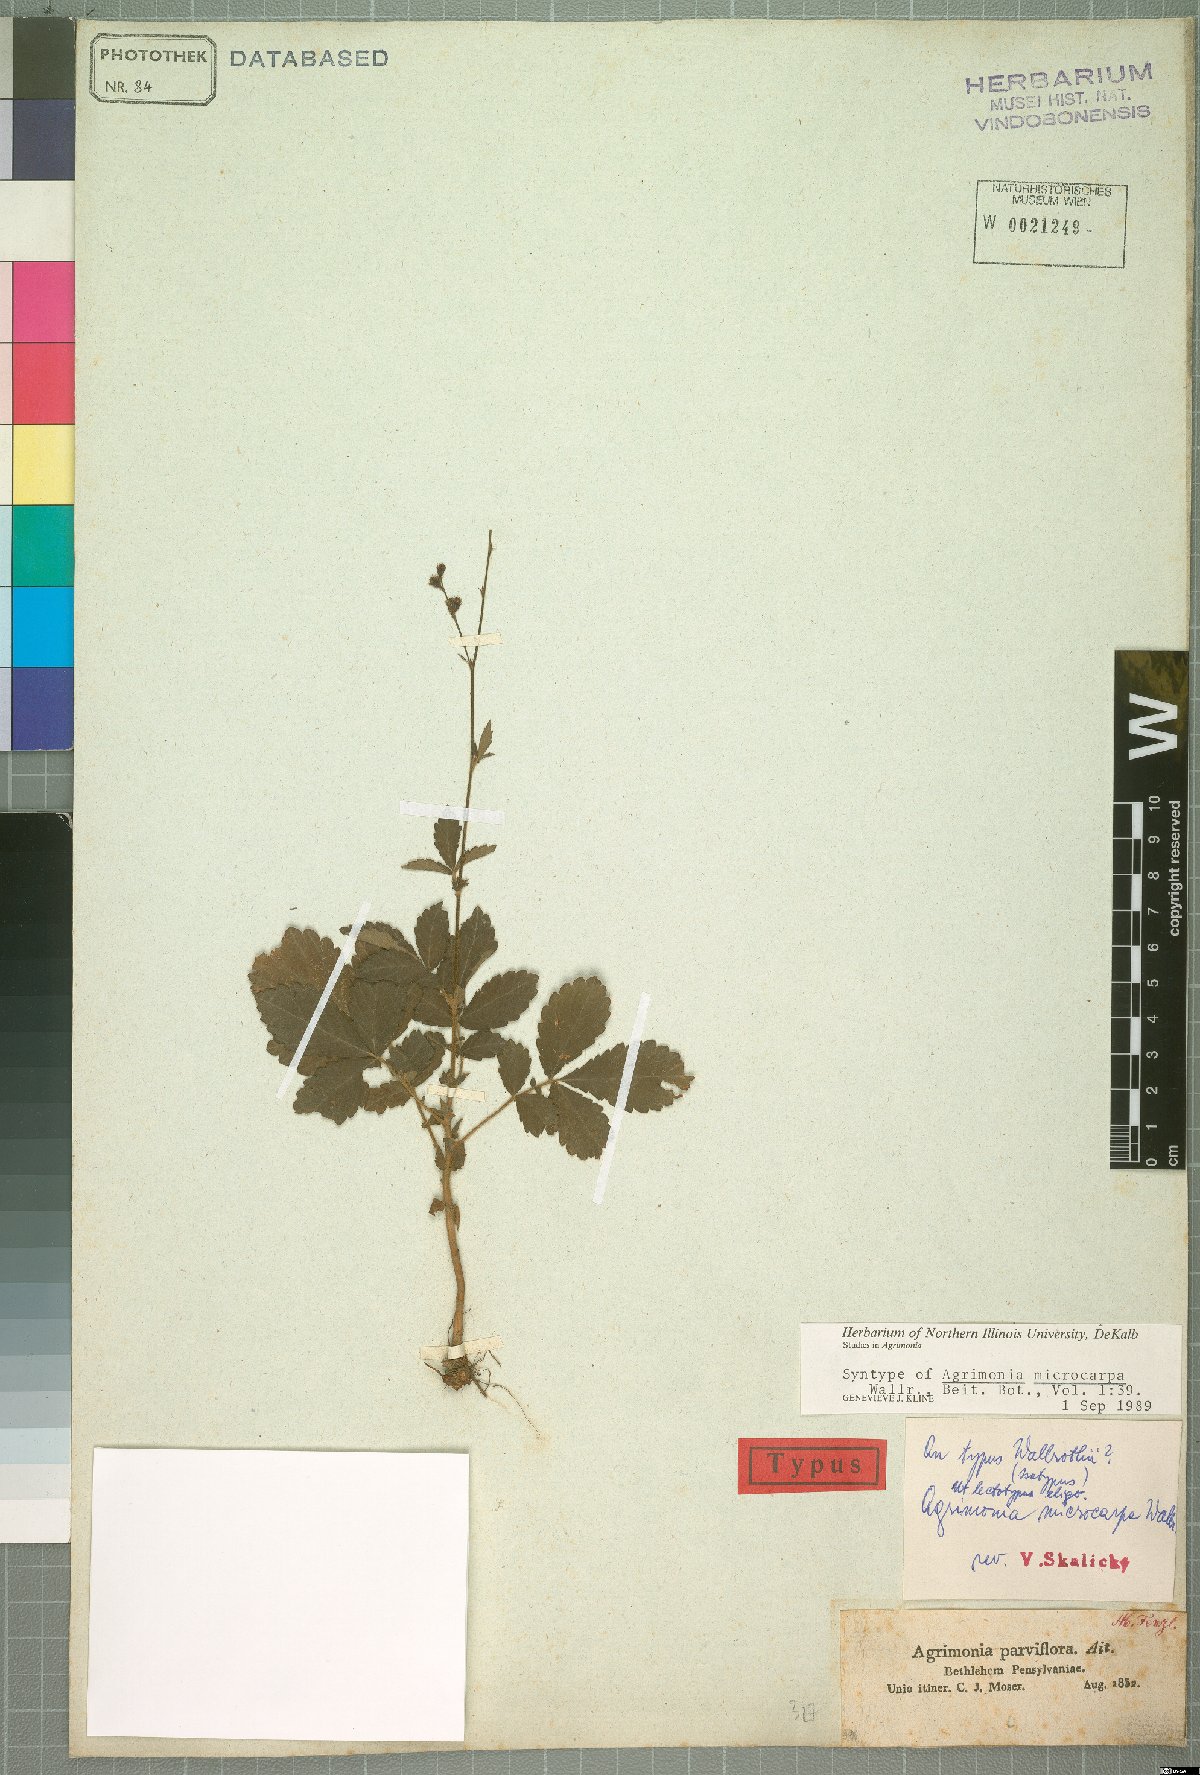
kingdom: Plantae
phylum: Tracheophyta
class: Magnoliopsida
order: Rosales
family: Rosaceae
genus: Agrimonia
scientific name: Agrimonia microcarpa
